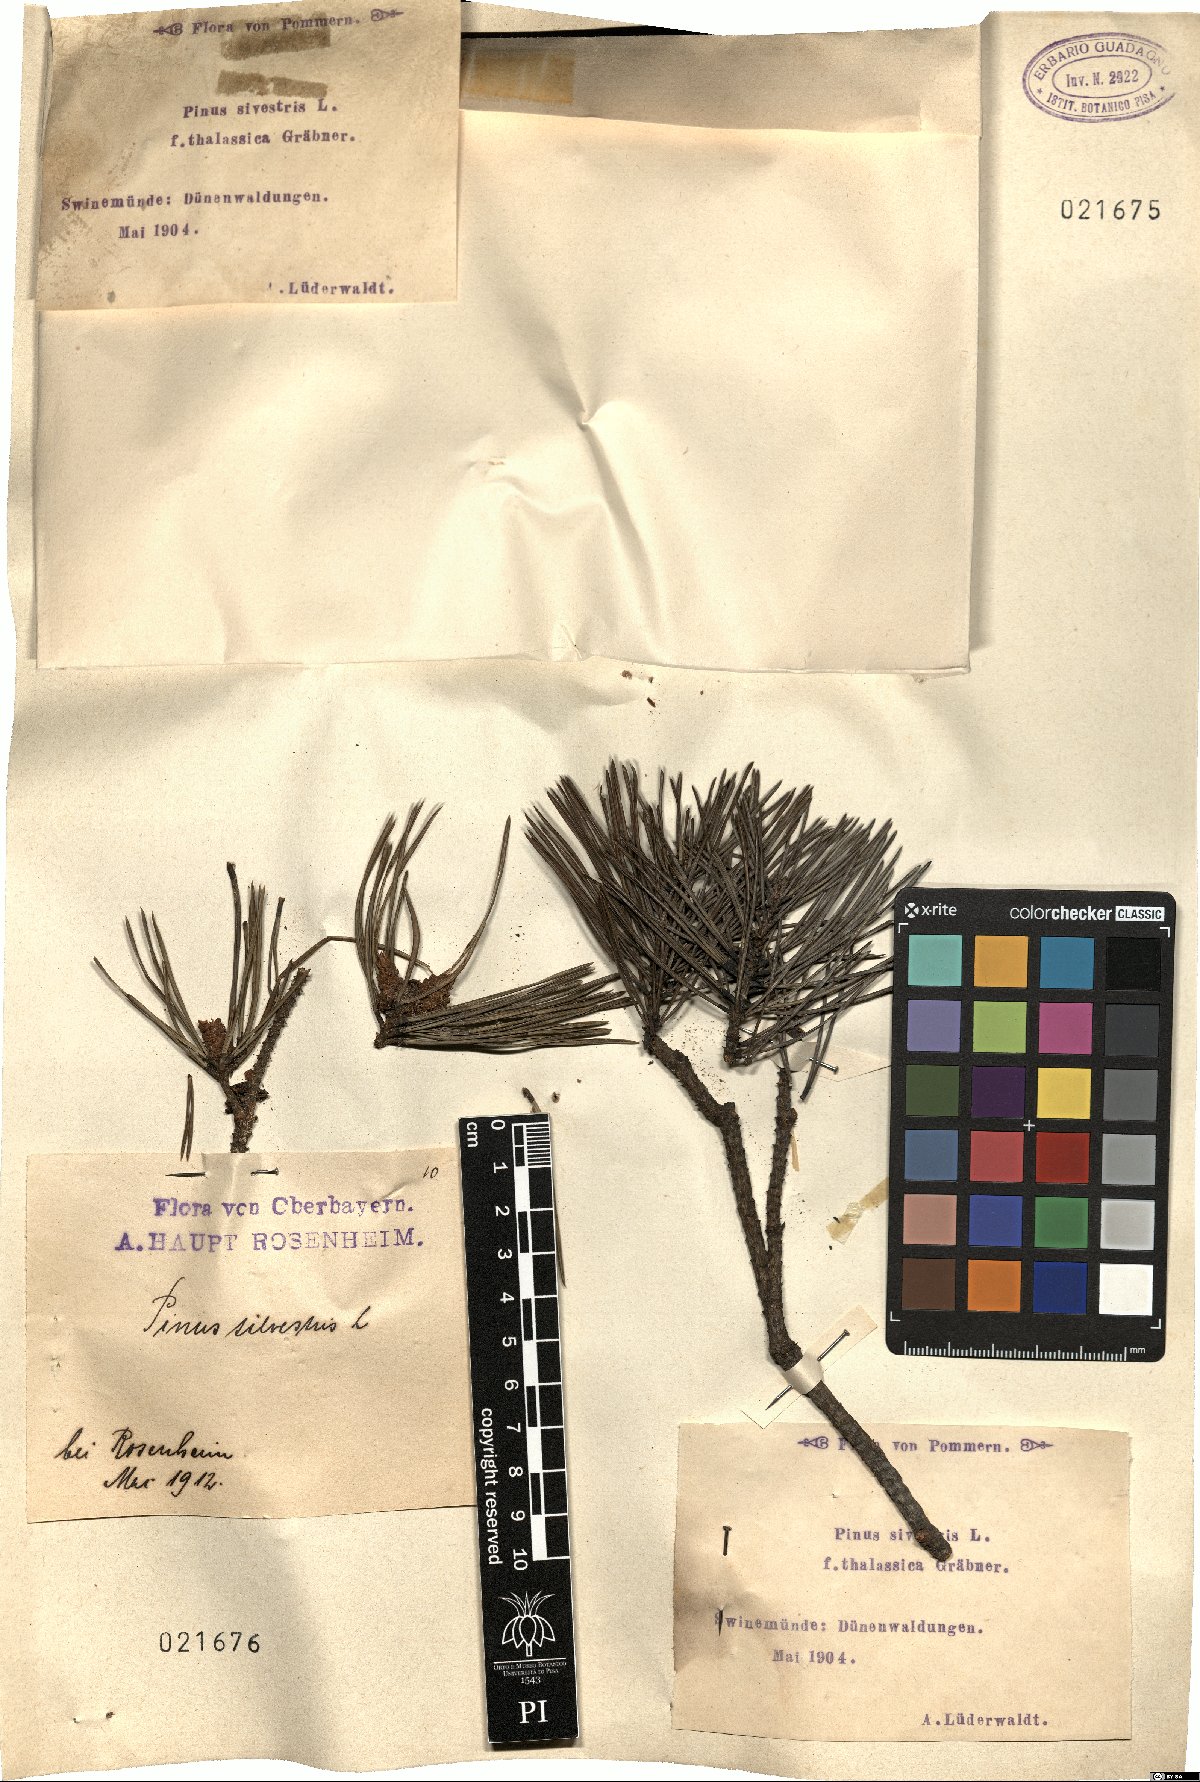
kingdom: Plantae
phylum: Tracheophyta
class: Pinopsida
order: Pinales
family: Pinaceae
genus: Pinus
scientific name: Pinus sylvestris
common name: Scots pine
